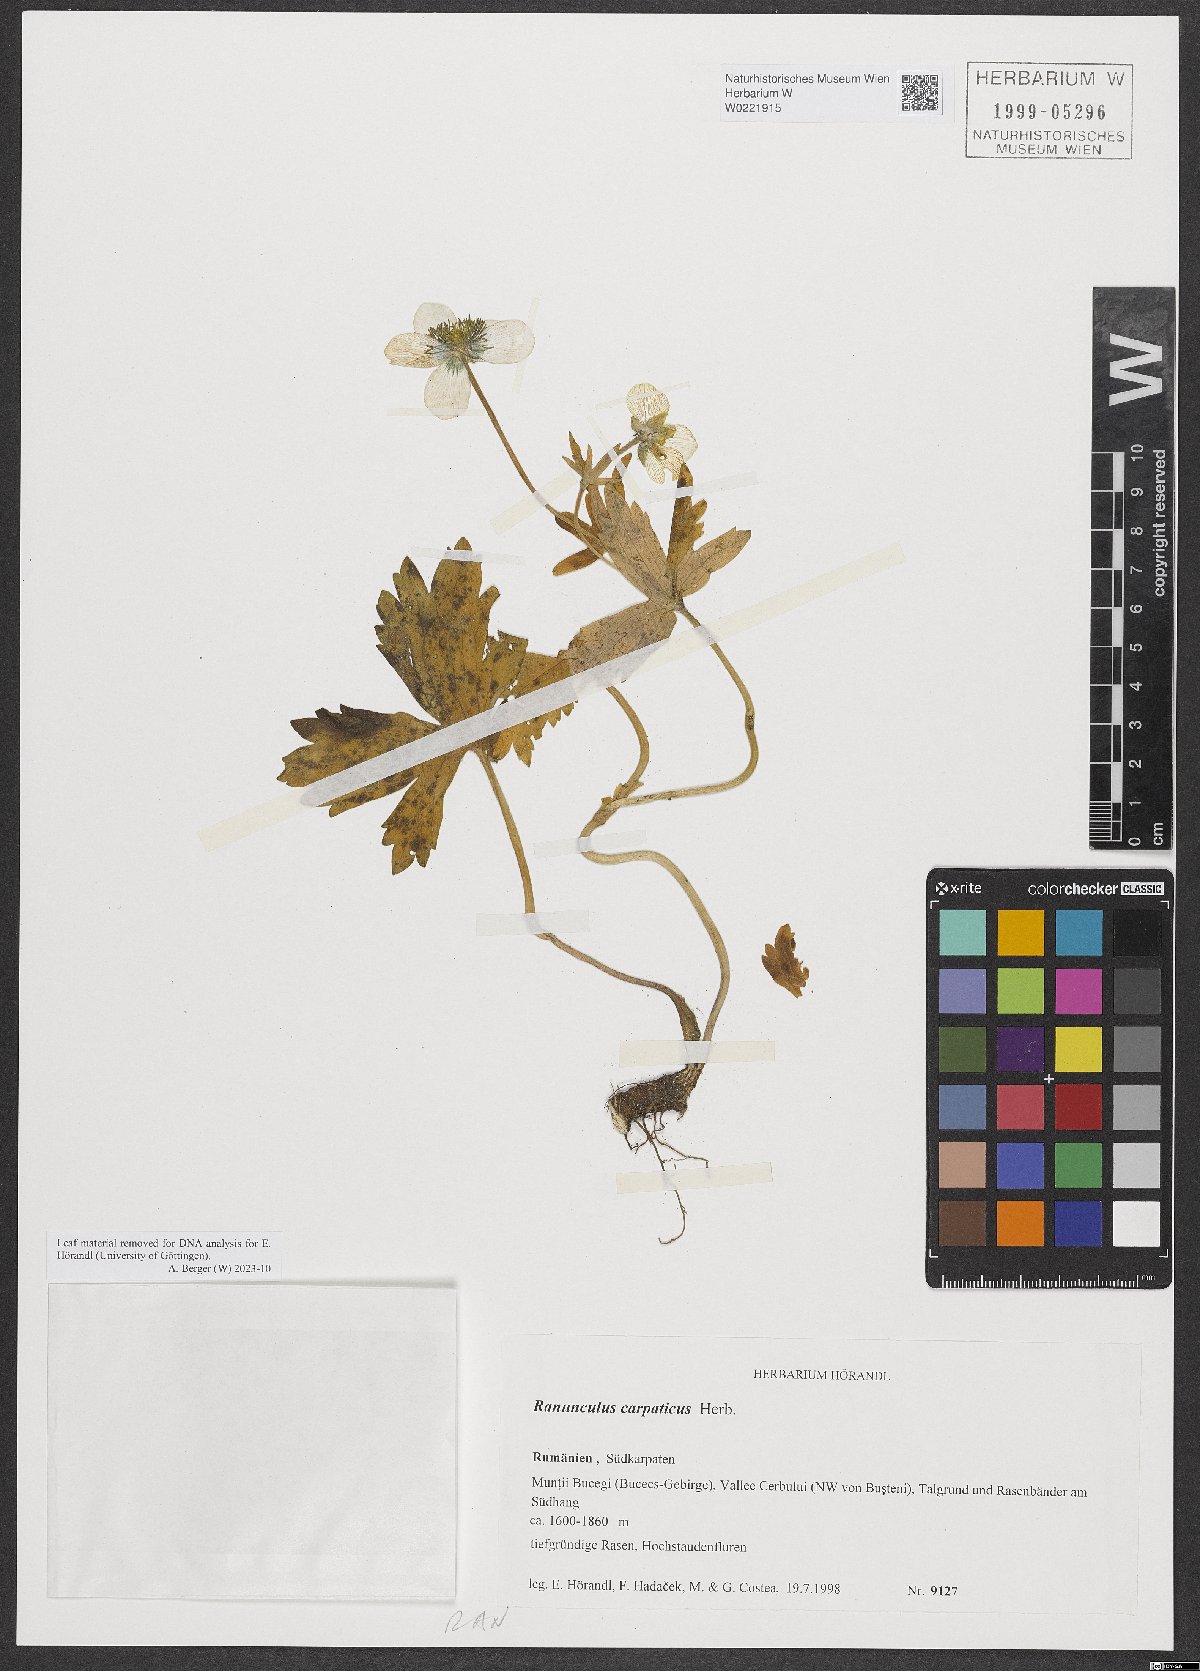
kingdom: Plantae
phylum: Tracheophyta
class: Magnoliopsida
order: Ranunculales
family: Ranunculaceae
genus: Ranunculus
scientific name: Ranunculus carpaticus
